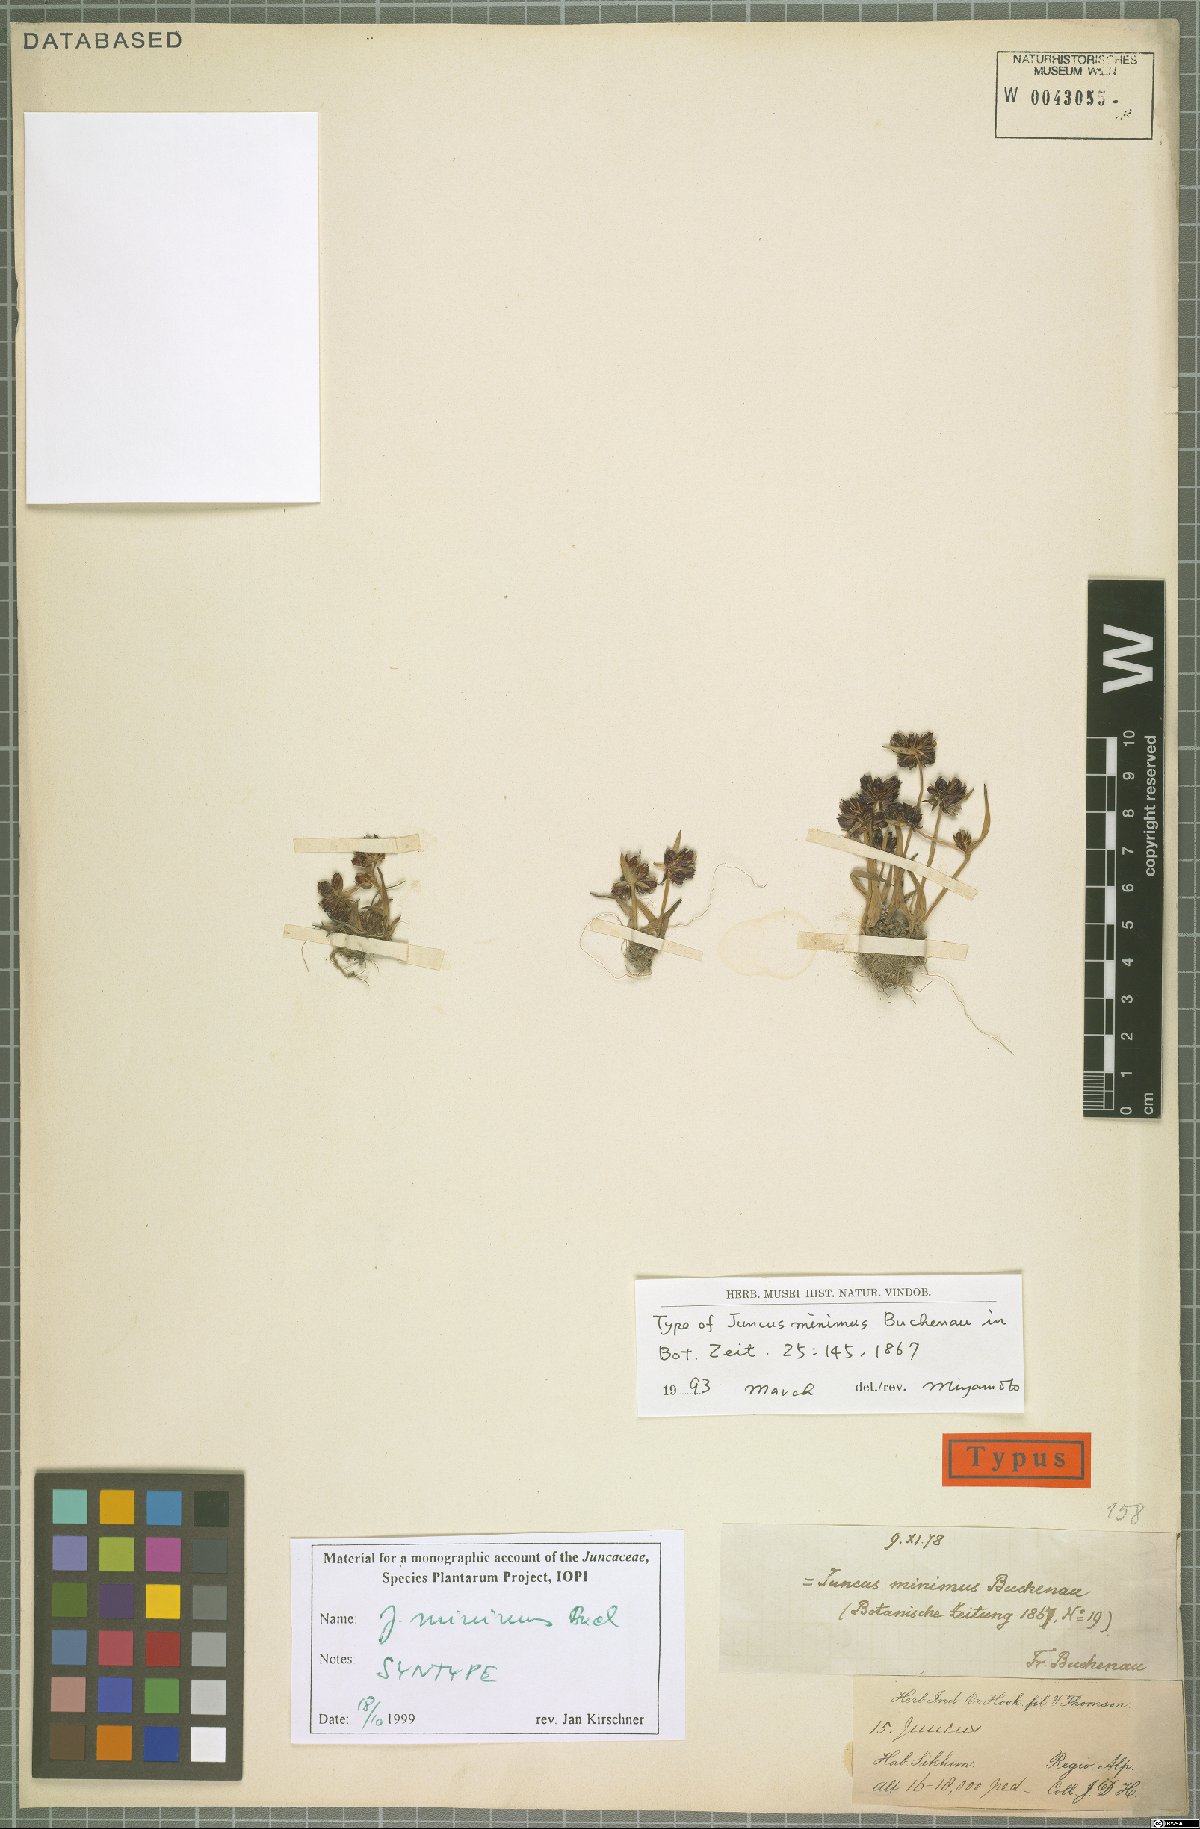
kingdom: Plantae
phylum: Tracheophyta
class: Liliopsida
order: Poales
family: Juncaceae
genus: Juncus
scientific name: Juncus minimus
